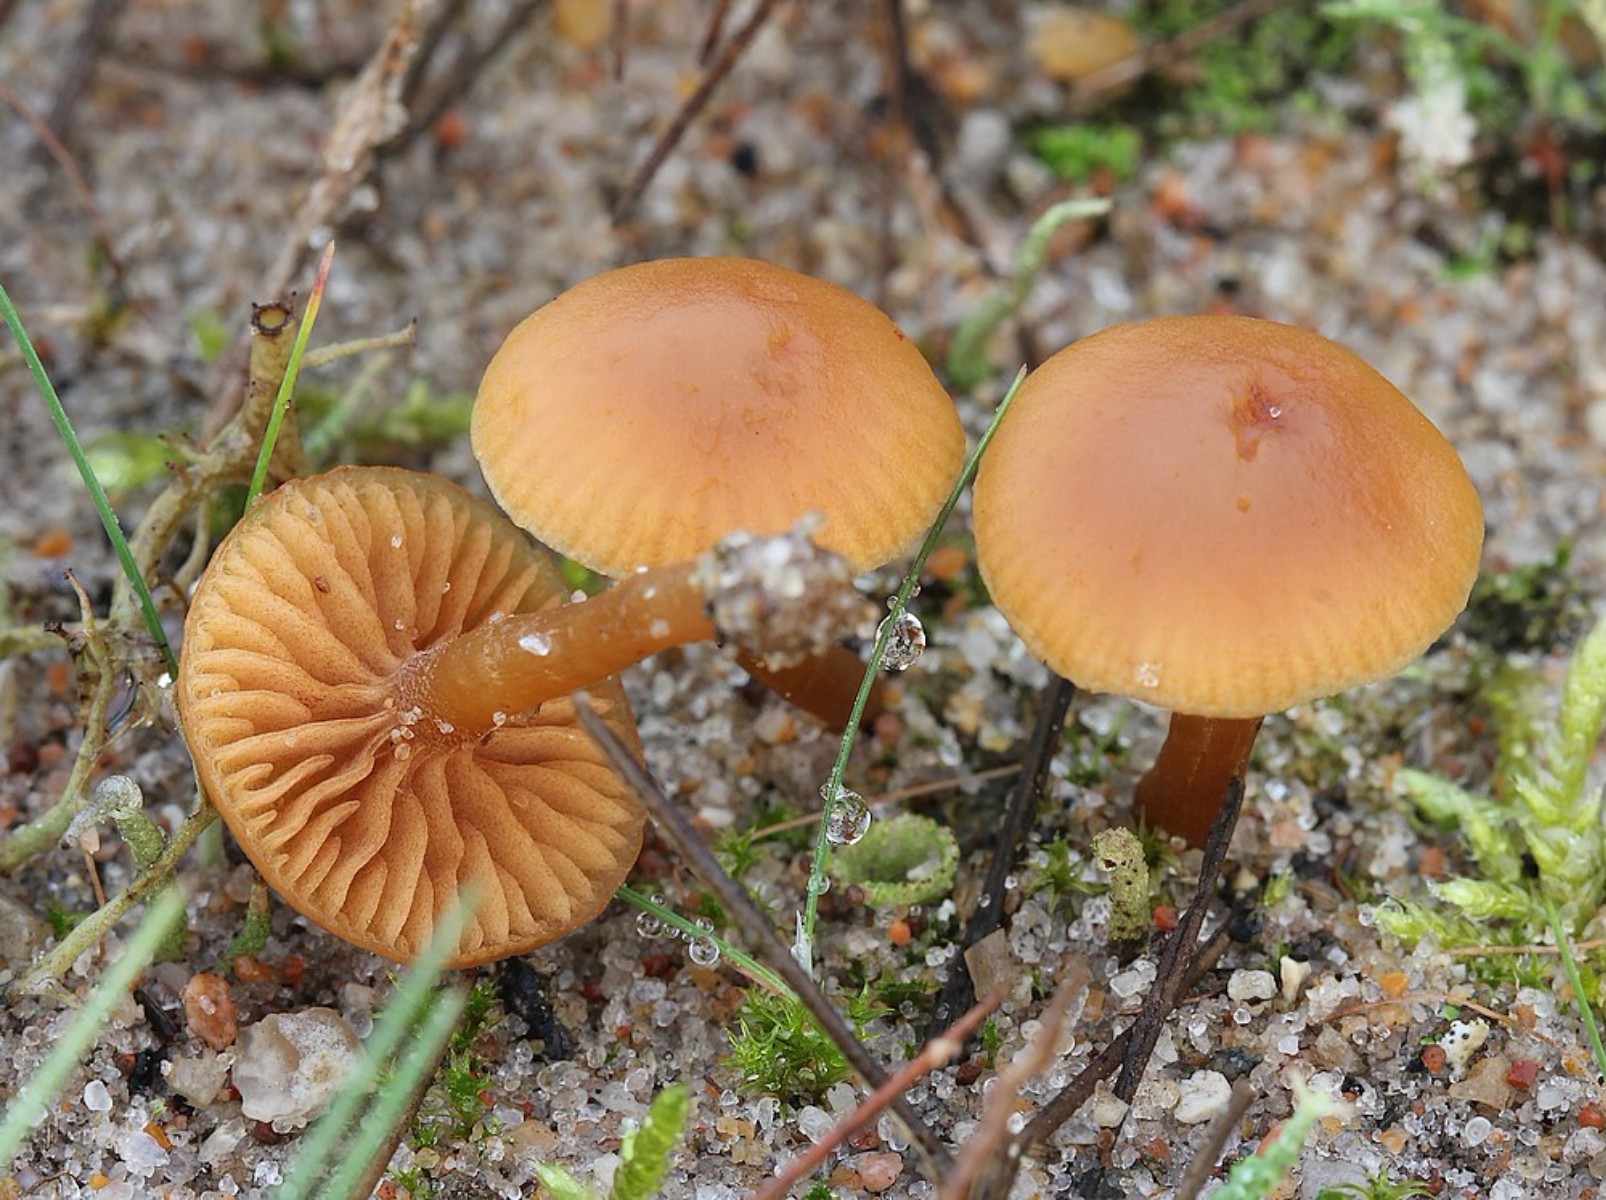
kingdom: Fungi
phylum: Basidiomycota
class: Agaricomycetes
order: Agaricales
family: Hymenogastraceae
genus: Galerina
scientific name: Galerina
